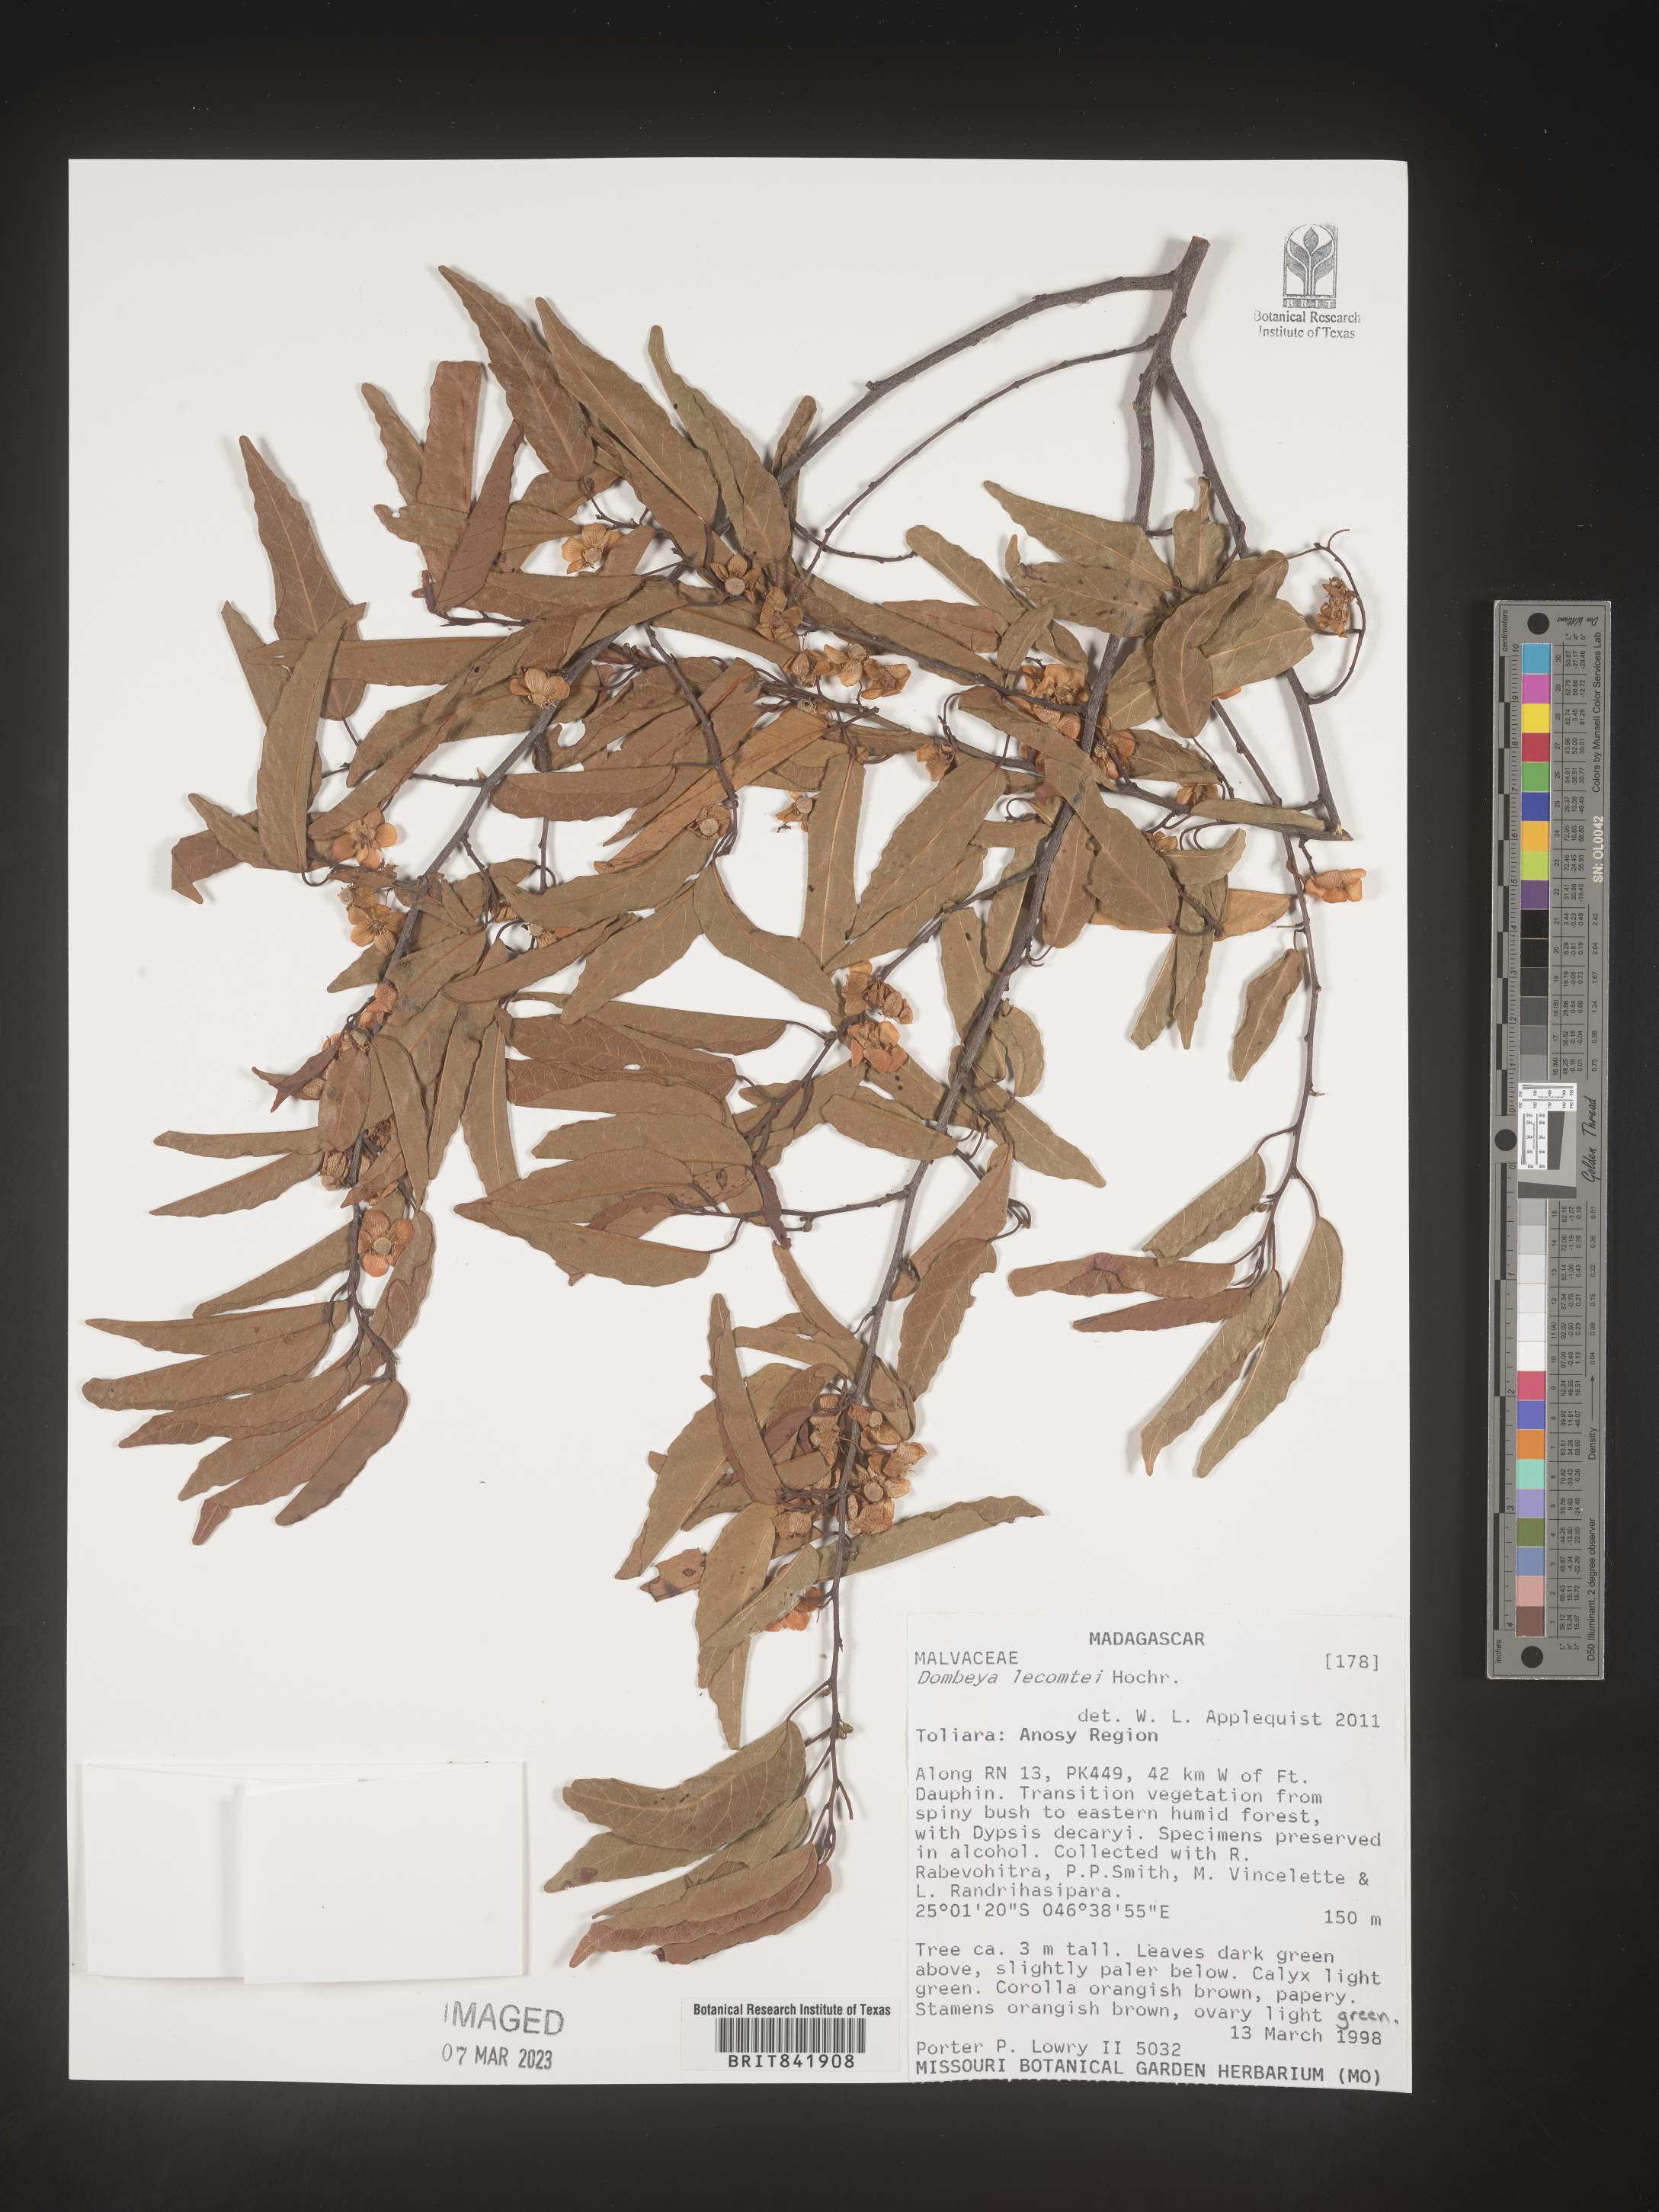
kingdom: Plantae
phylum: Tracheophyta
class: Magnoliopsida
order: Malvales
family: Malvaceae
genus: Dombeya
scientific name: Dombeya lecomtei
